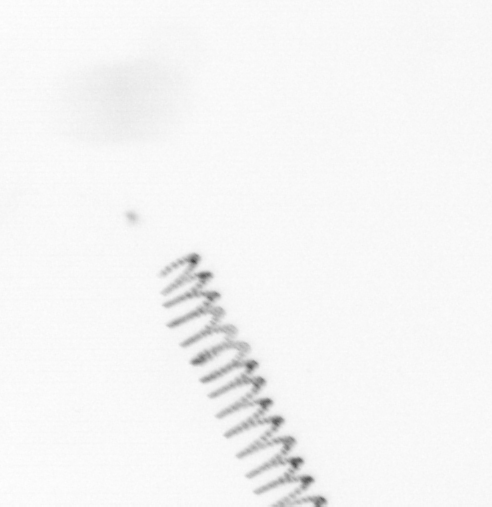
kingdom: Chromista
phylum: Ochrophyta
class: Bacillariophyceae
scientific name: Bacillariophyceae
